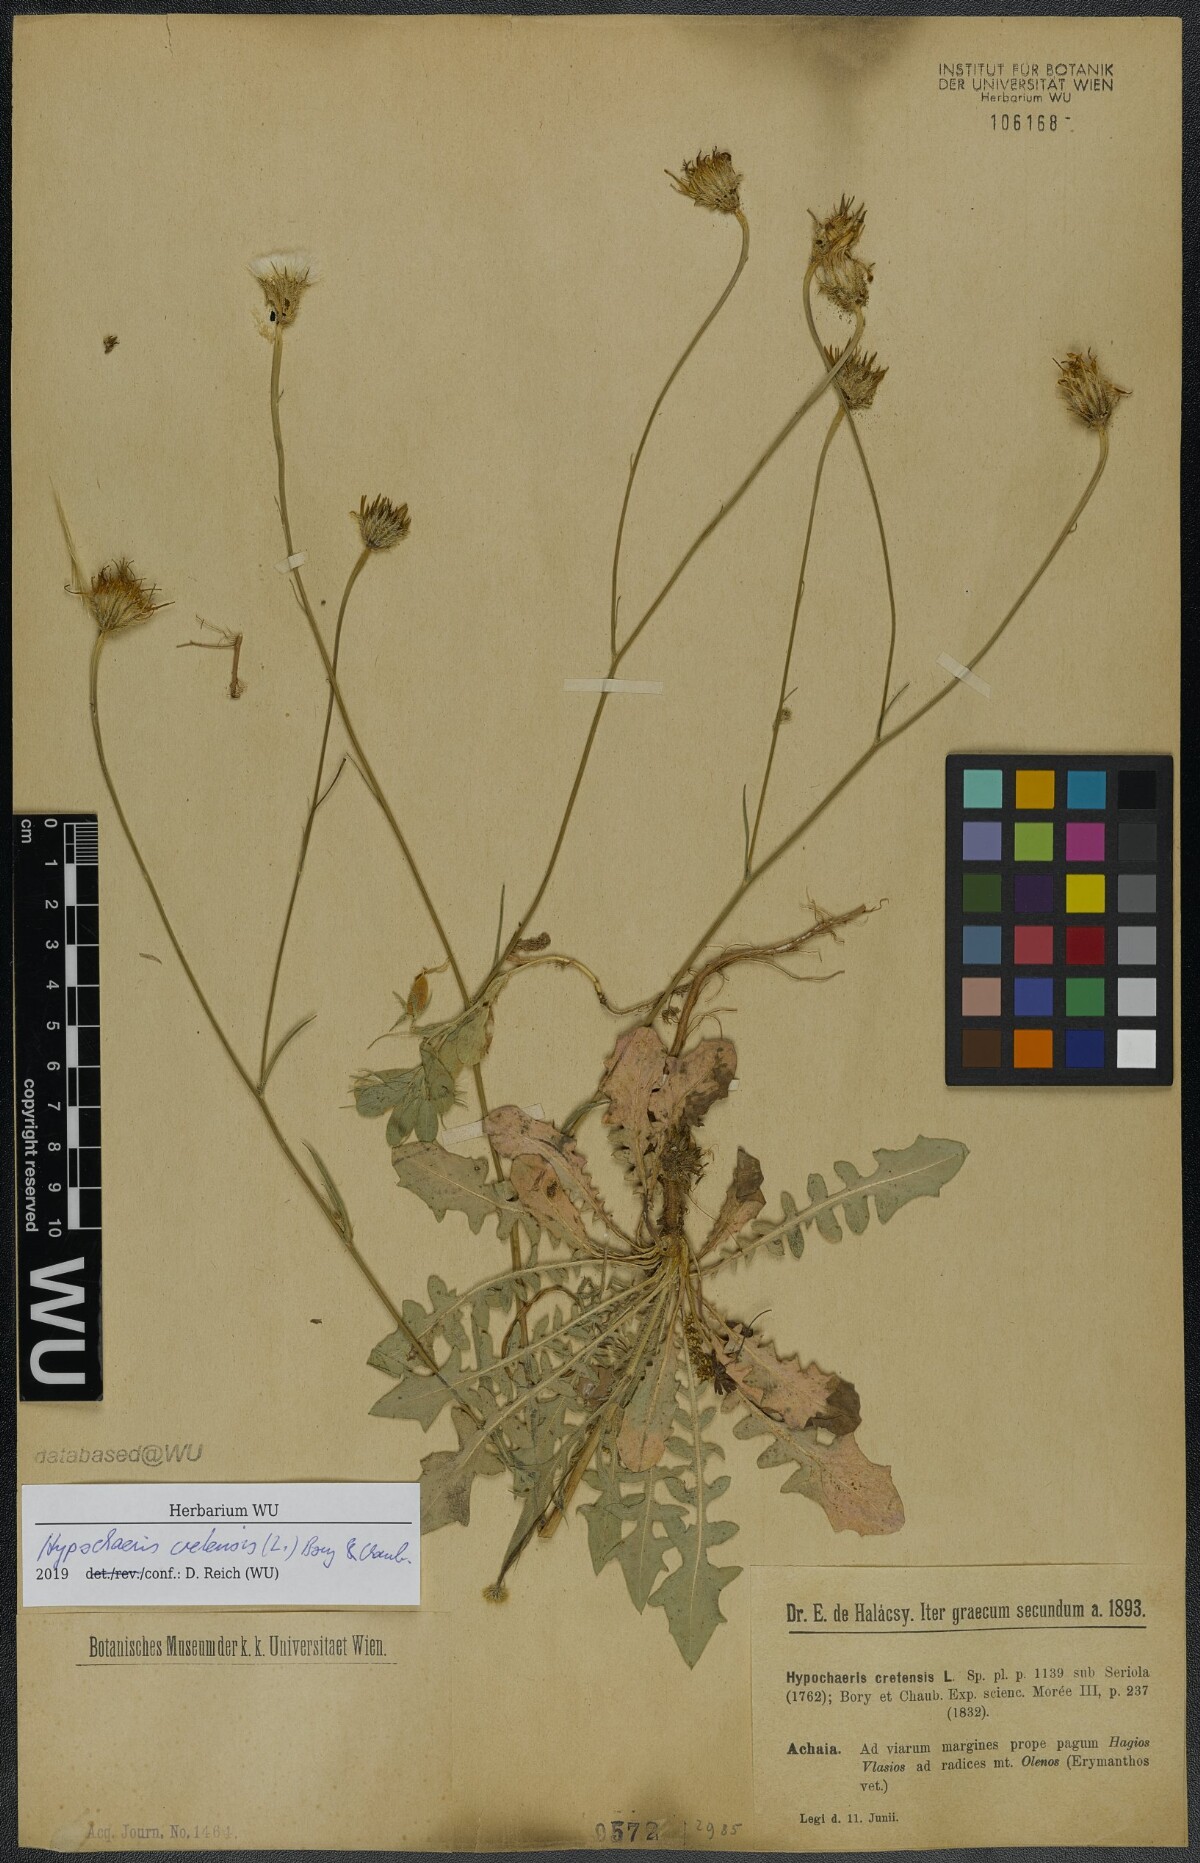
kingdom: Plantae
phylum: Tracheophyta
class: Magnoliopsida
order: Asterales
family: Asteraceae
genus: Hypochaeris
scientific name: Hypochaeris cretensis
